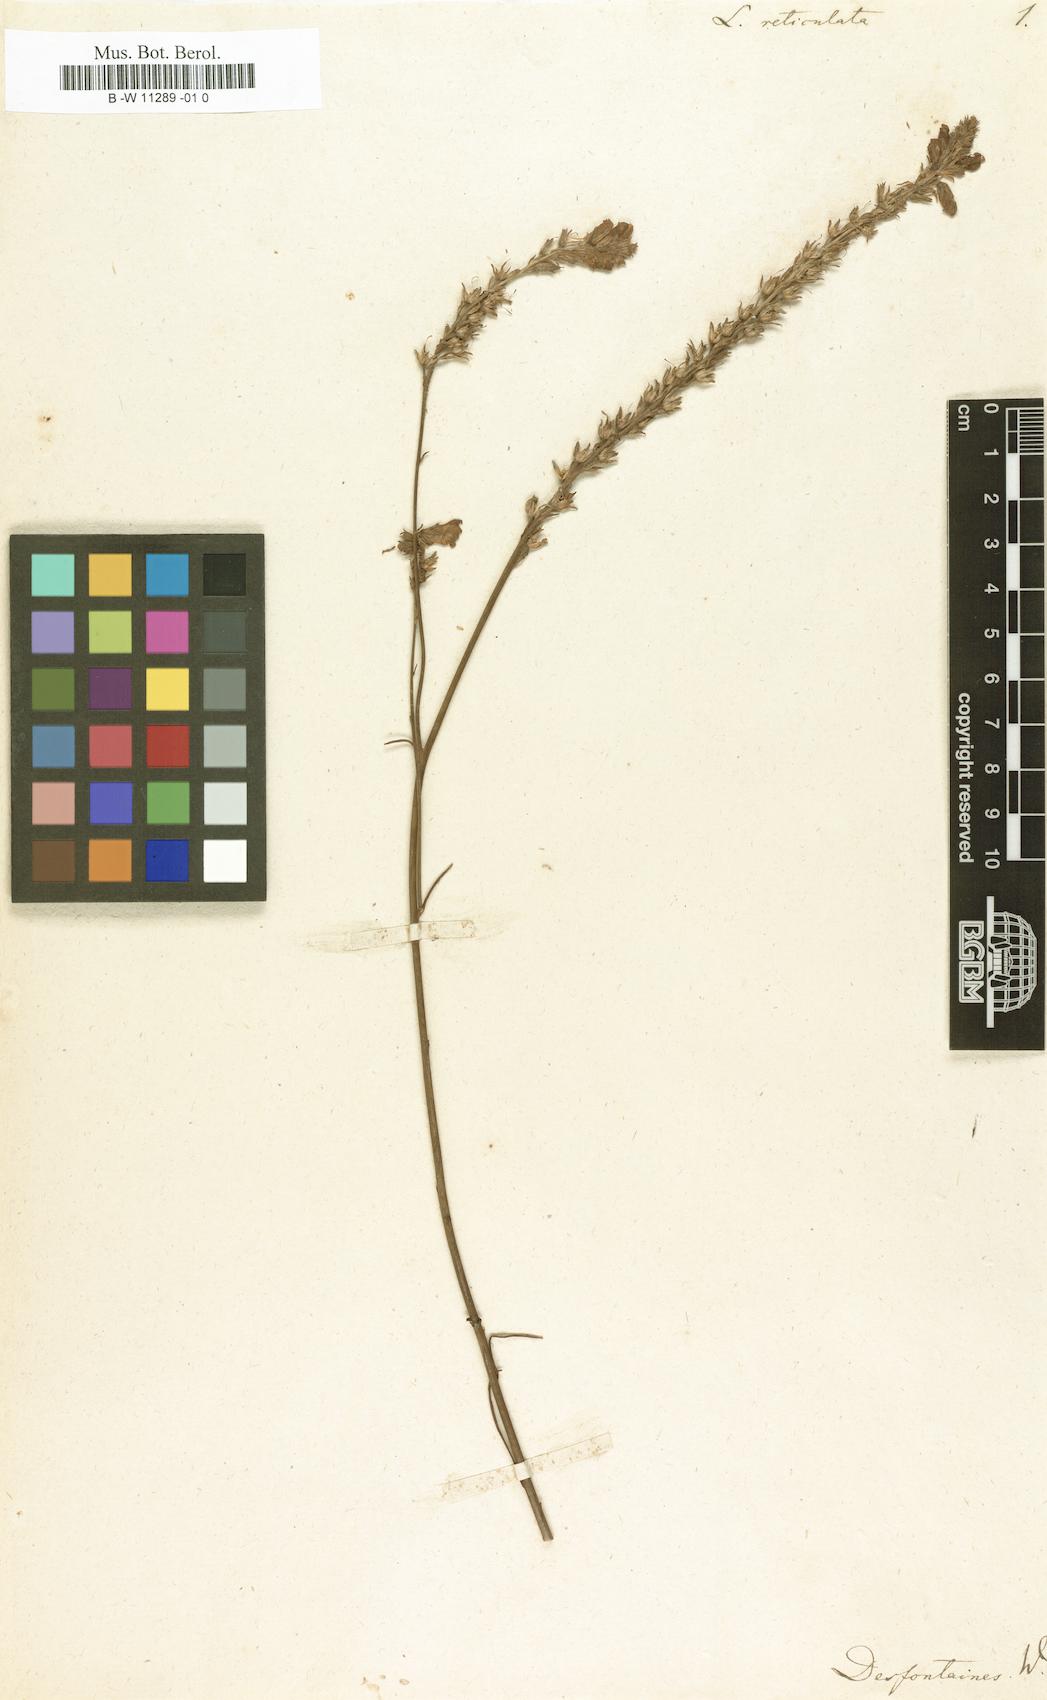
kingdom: Plantae
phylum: Tracheophyta
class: Magnoliopsida
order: Lamiales
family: Plantaginaceae
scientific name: Plantaginaceae
